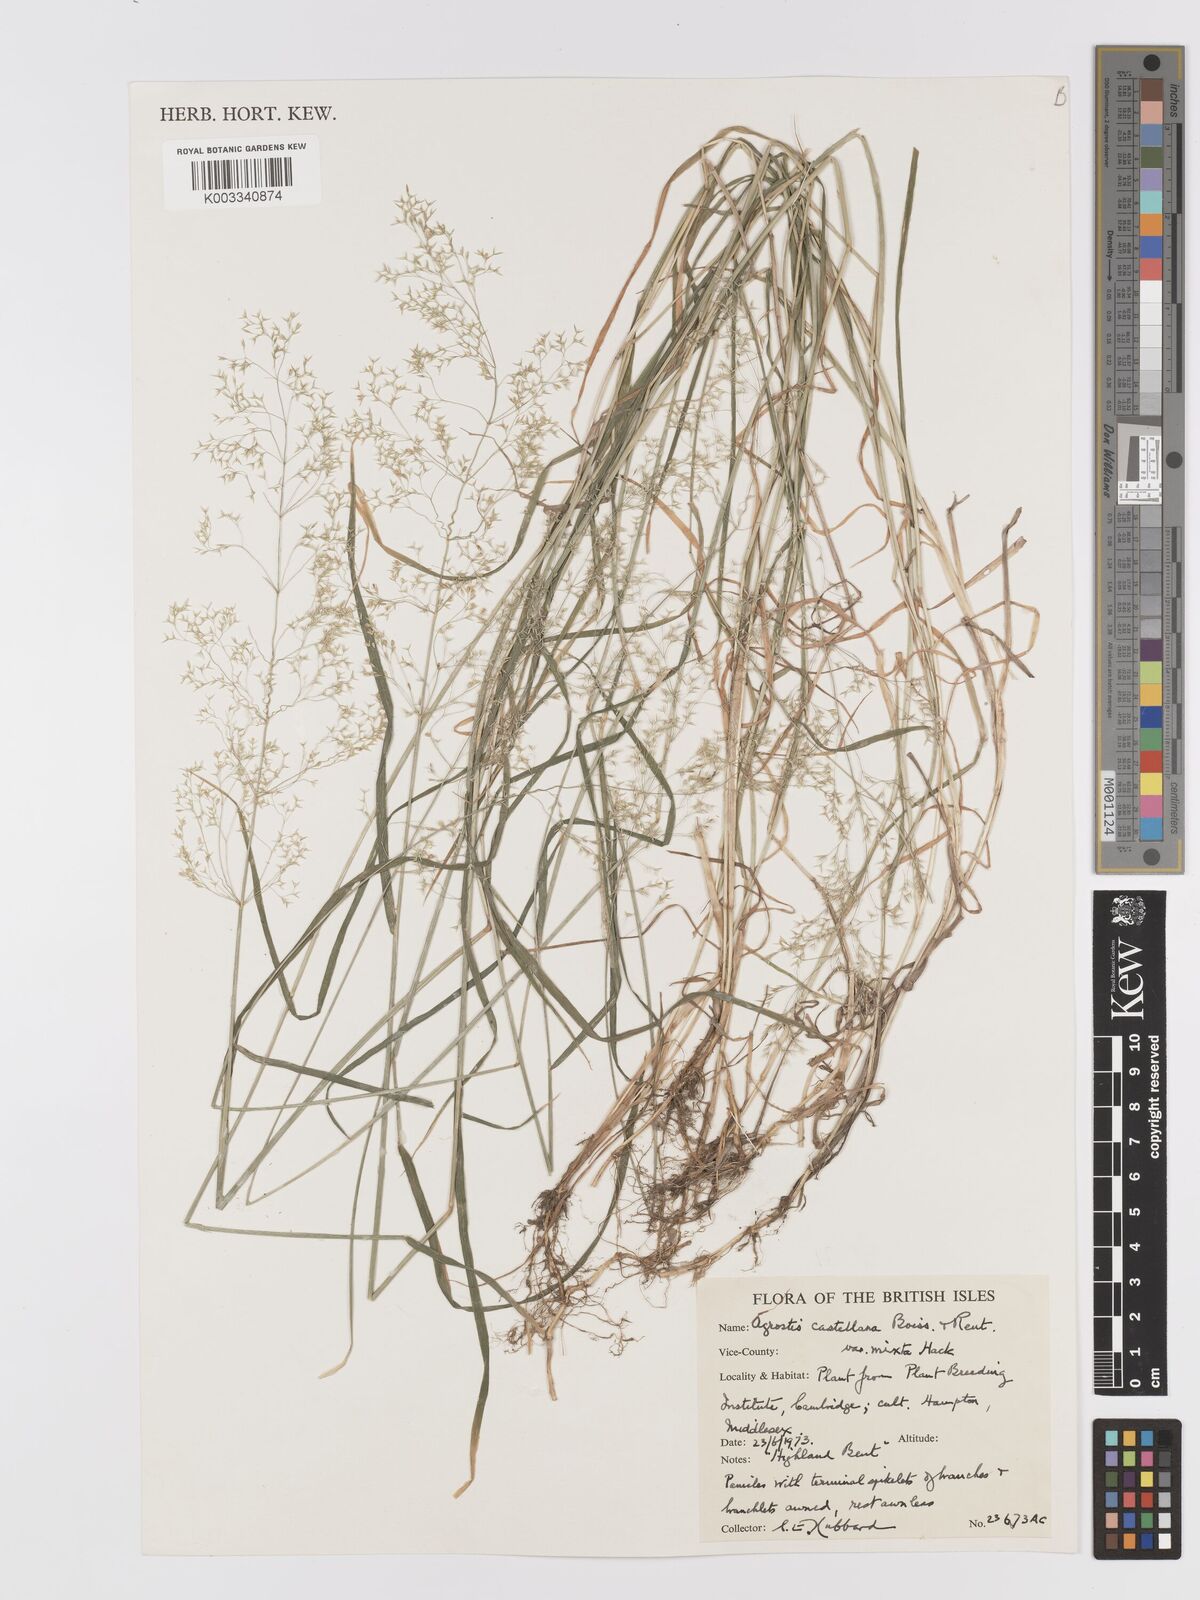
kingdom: Plantae
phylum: Tracheophyta
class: Liliopsida
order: Poales
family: Poaceae
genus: Agrostis
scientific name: Agrostis capillaris
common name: Colonial bentgrass
